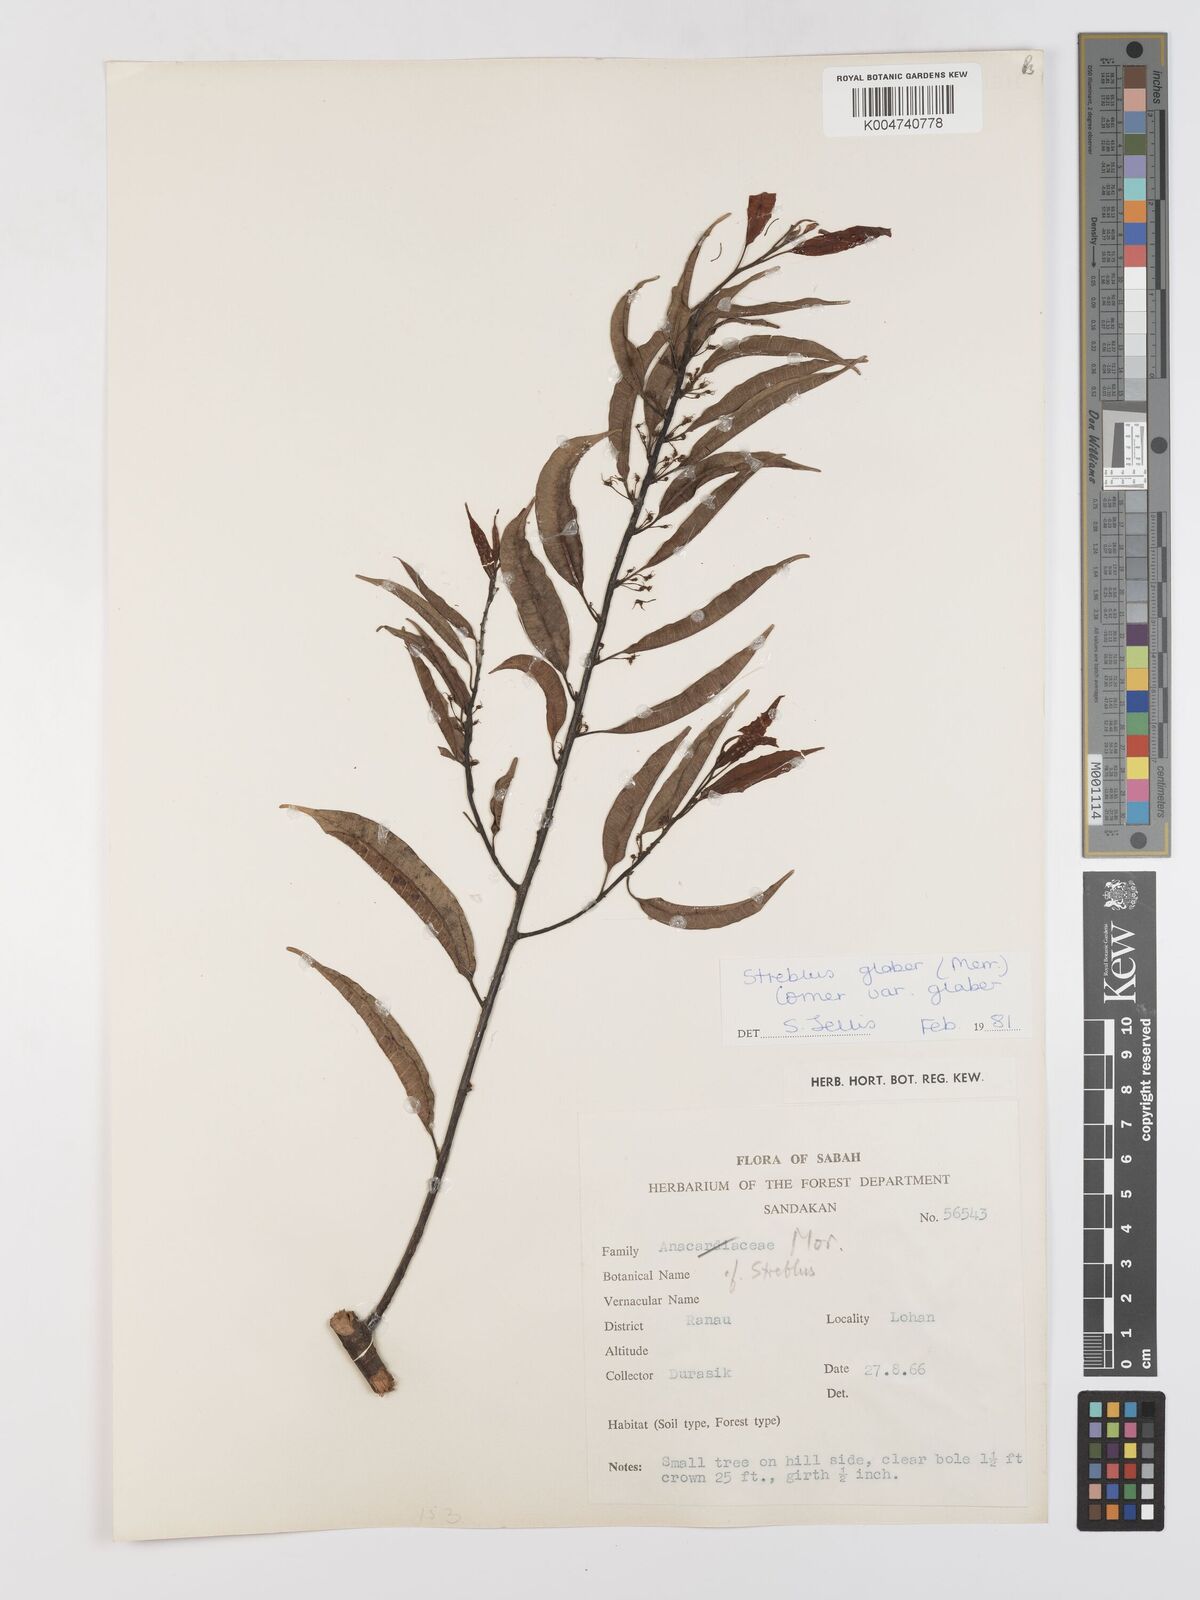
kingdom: Plantae
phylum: Tracheophyta
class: Magnoliopsida
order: Rosales
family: Moraceae
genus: Paratrophis
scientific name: Paratrophis glabra
